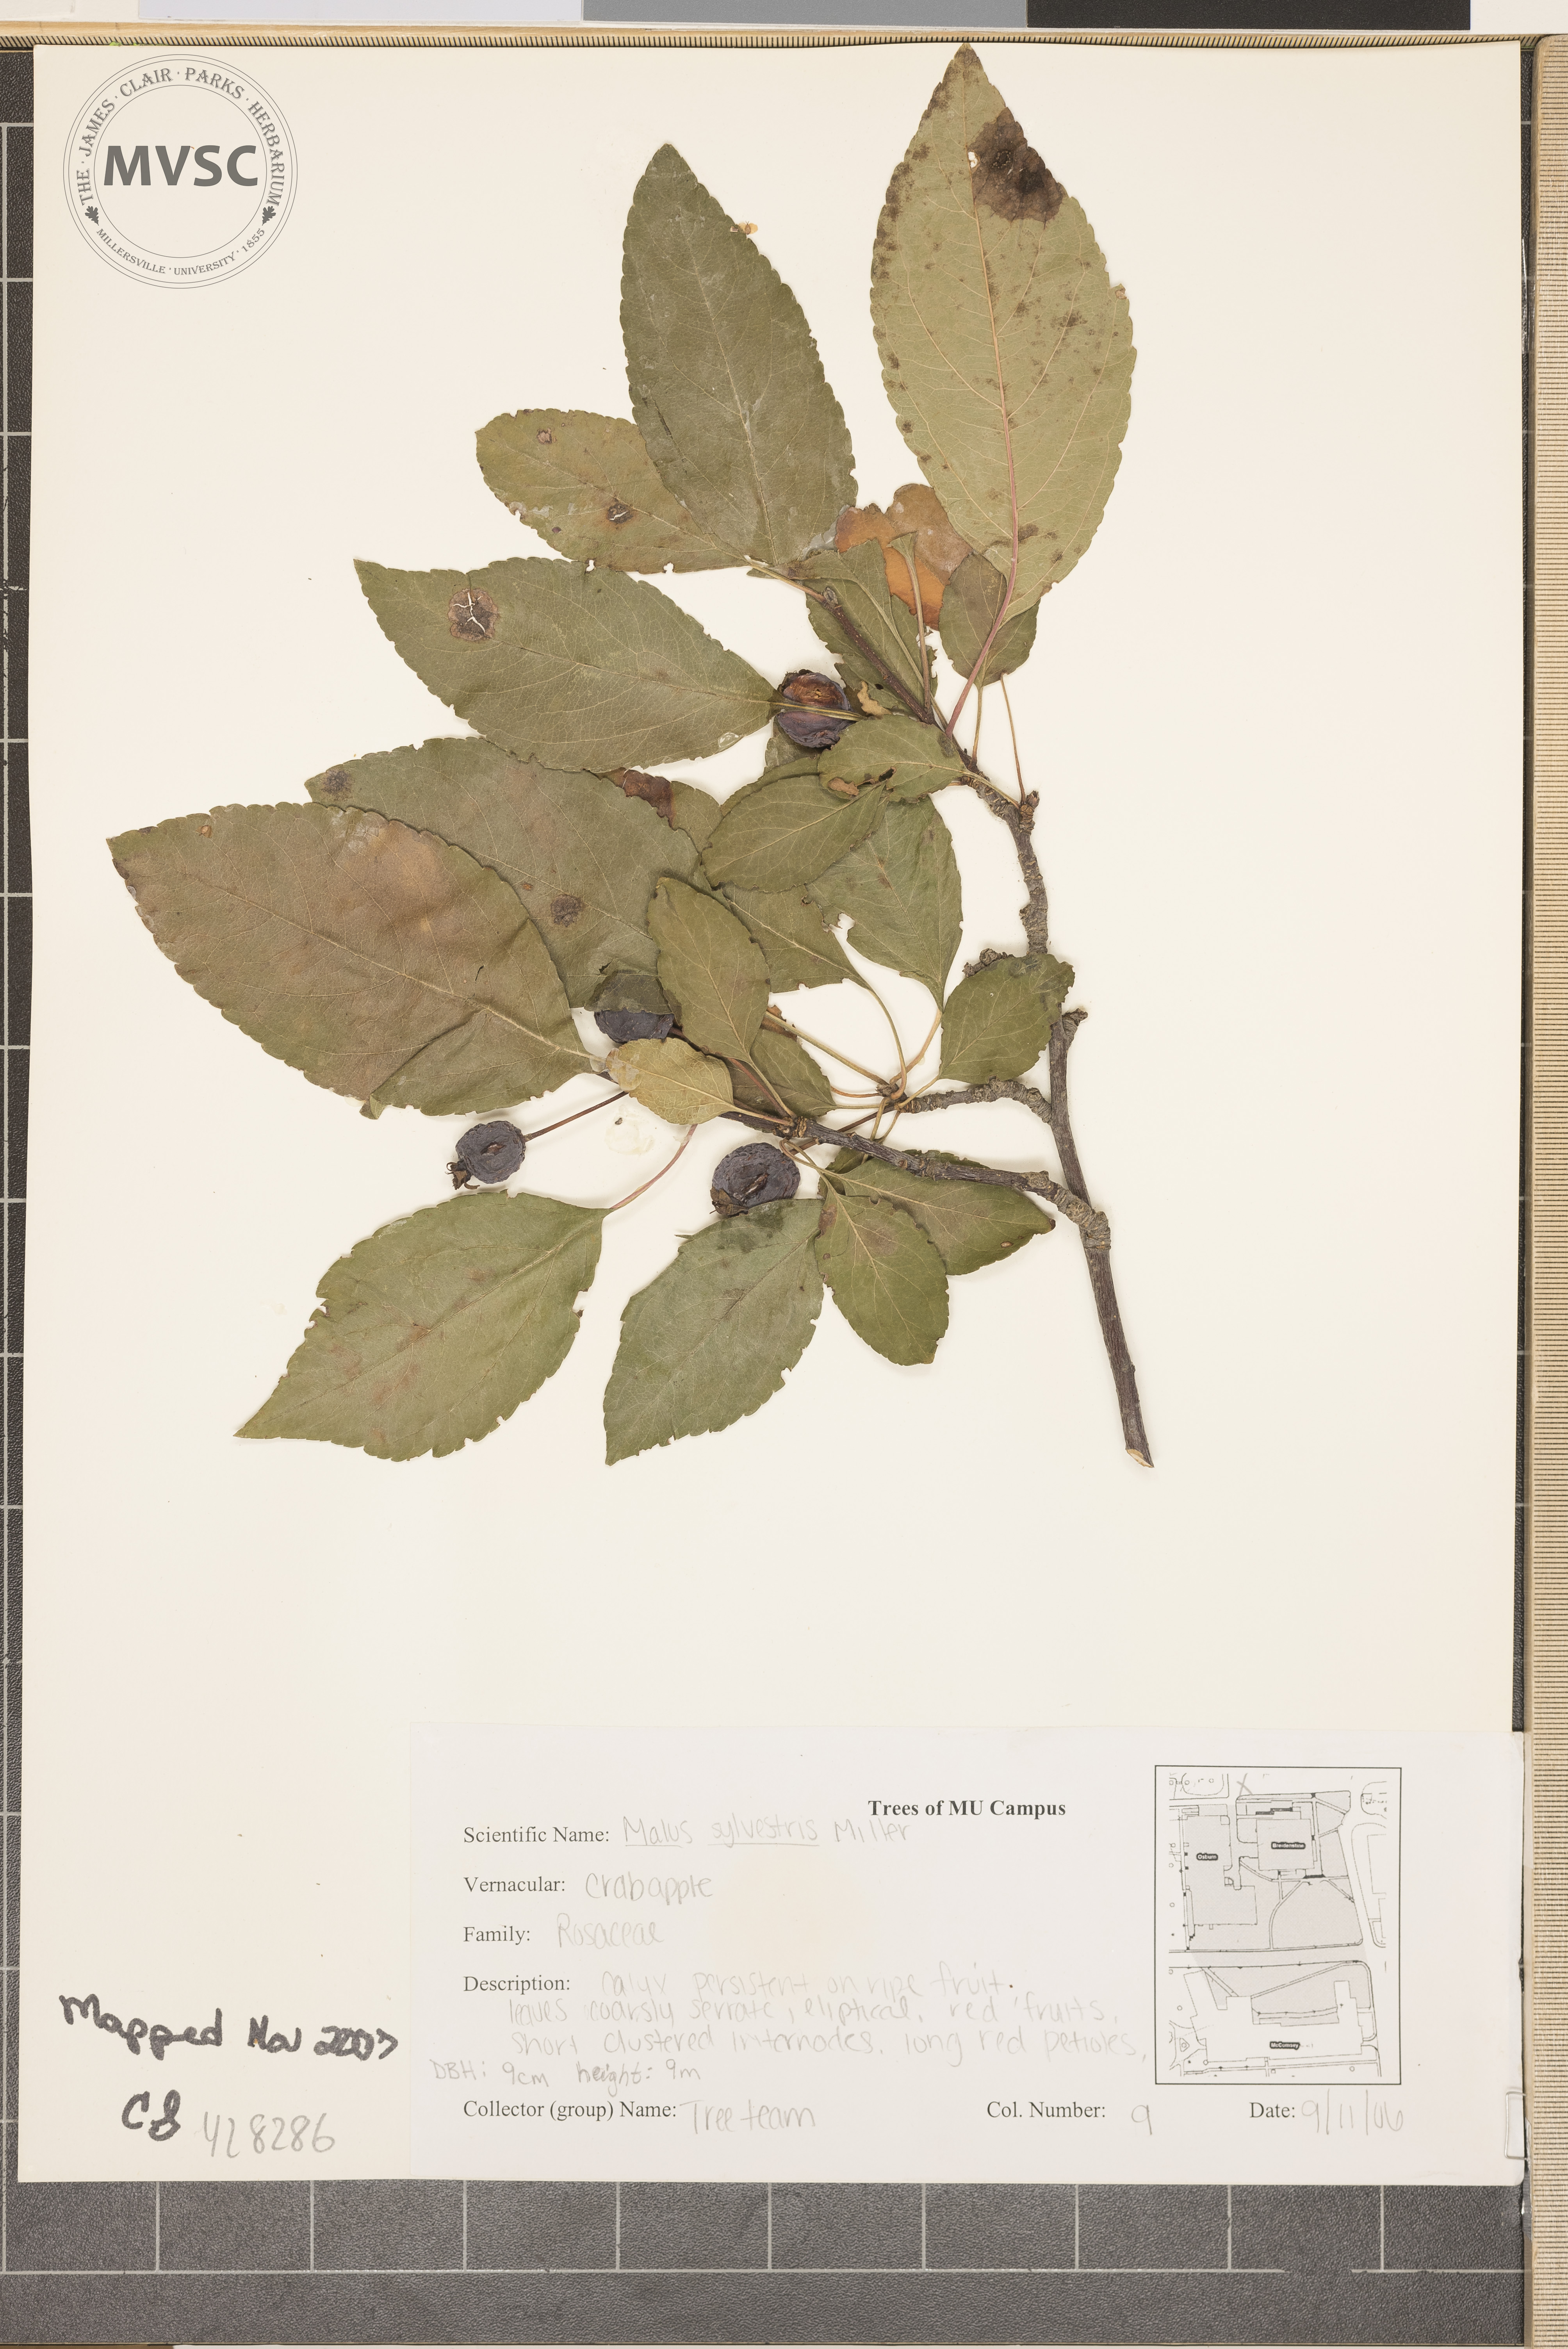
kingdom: Plantae
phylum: Tracheophyta
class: Magnoliopsida
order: Rosales
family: Rosaceae
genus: Malus
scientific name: Malus sylvestris
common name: Apple
